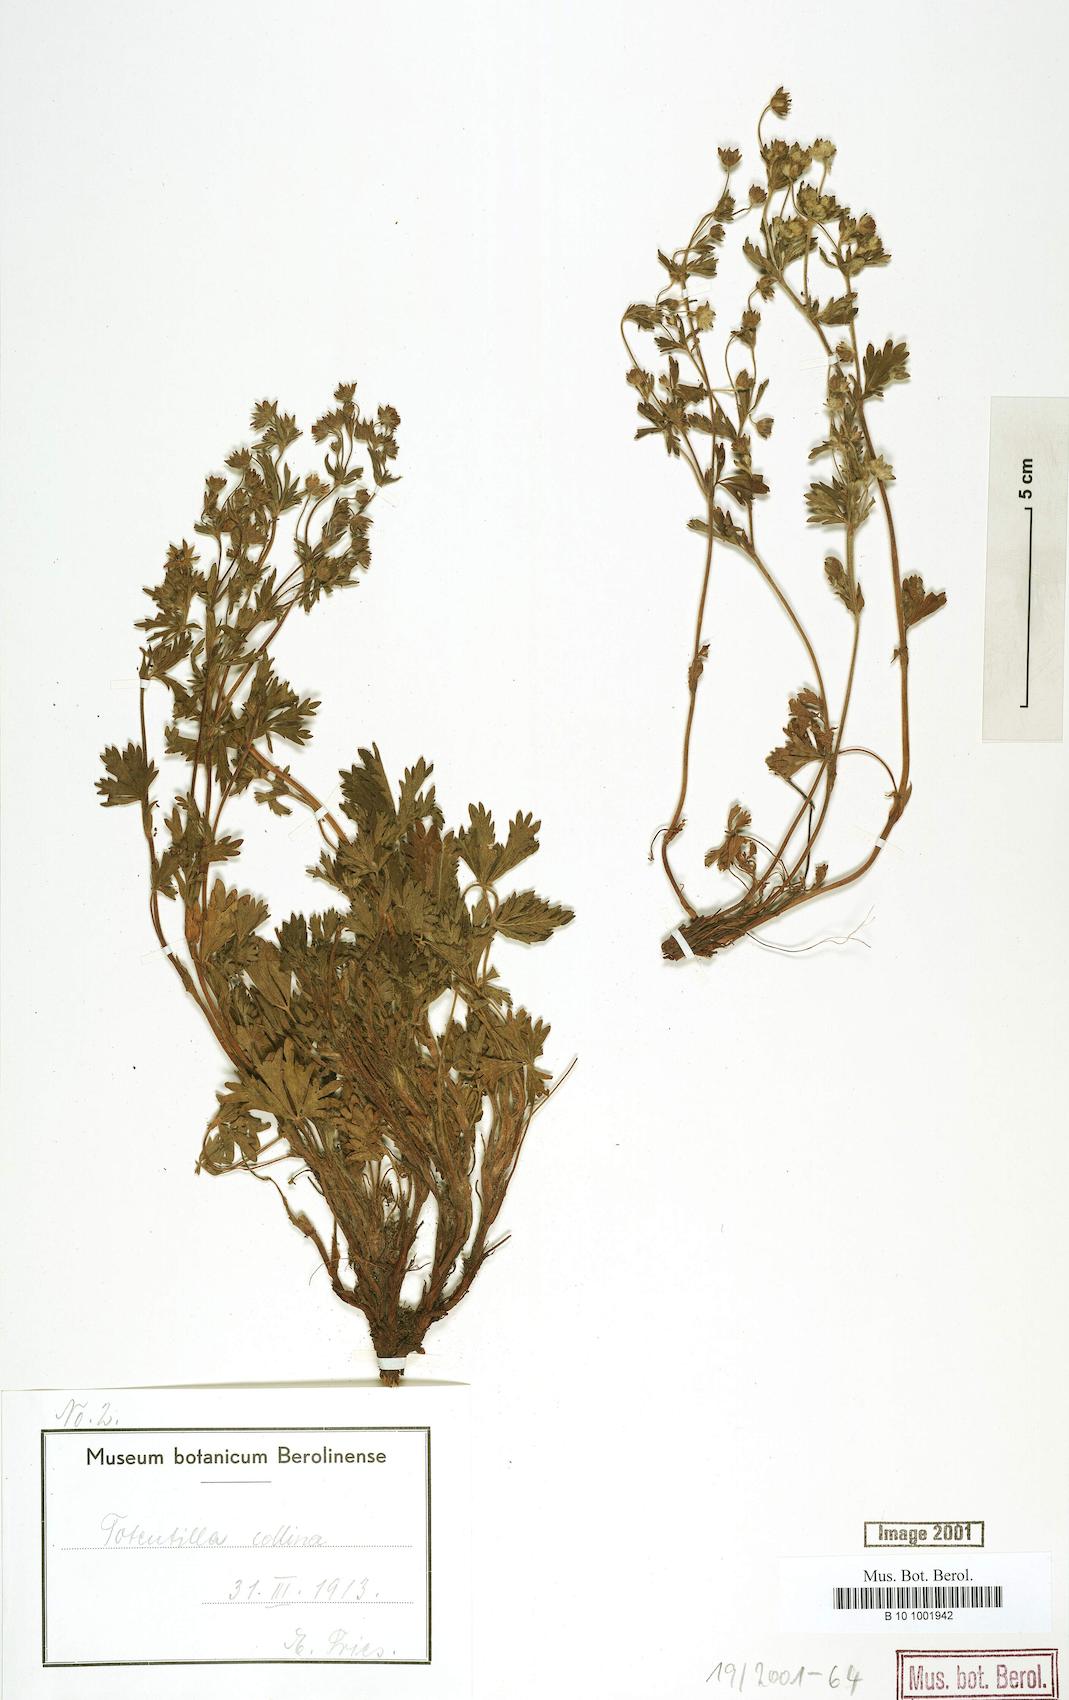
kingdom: Plantae
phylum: Tracheophyta
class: Magnoliopsida
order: Rosales
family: Rosaceae
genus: Potentilla
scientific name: Potentilla collina
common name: Palmleaf cinquefoil
